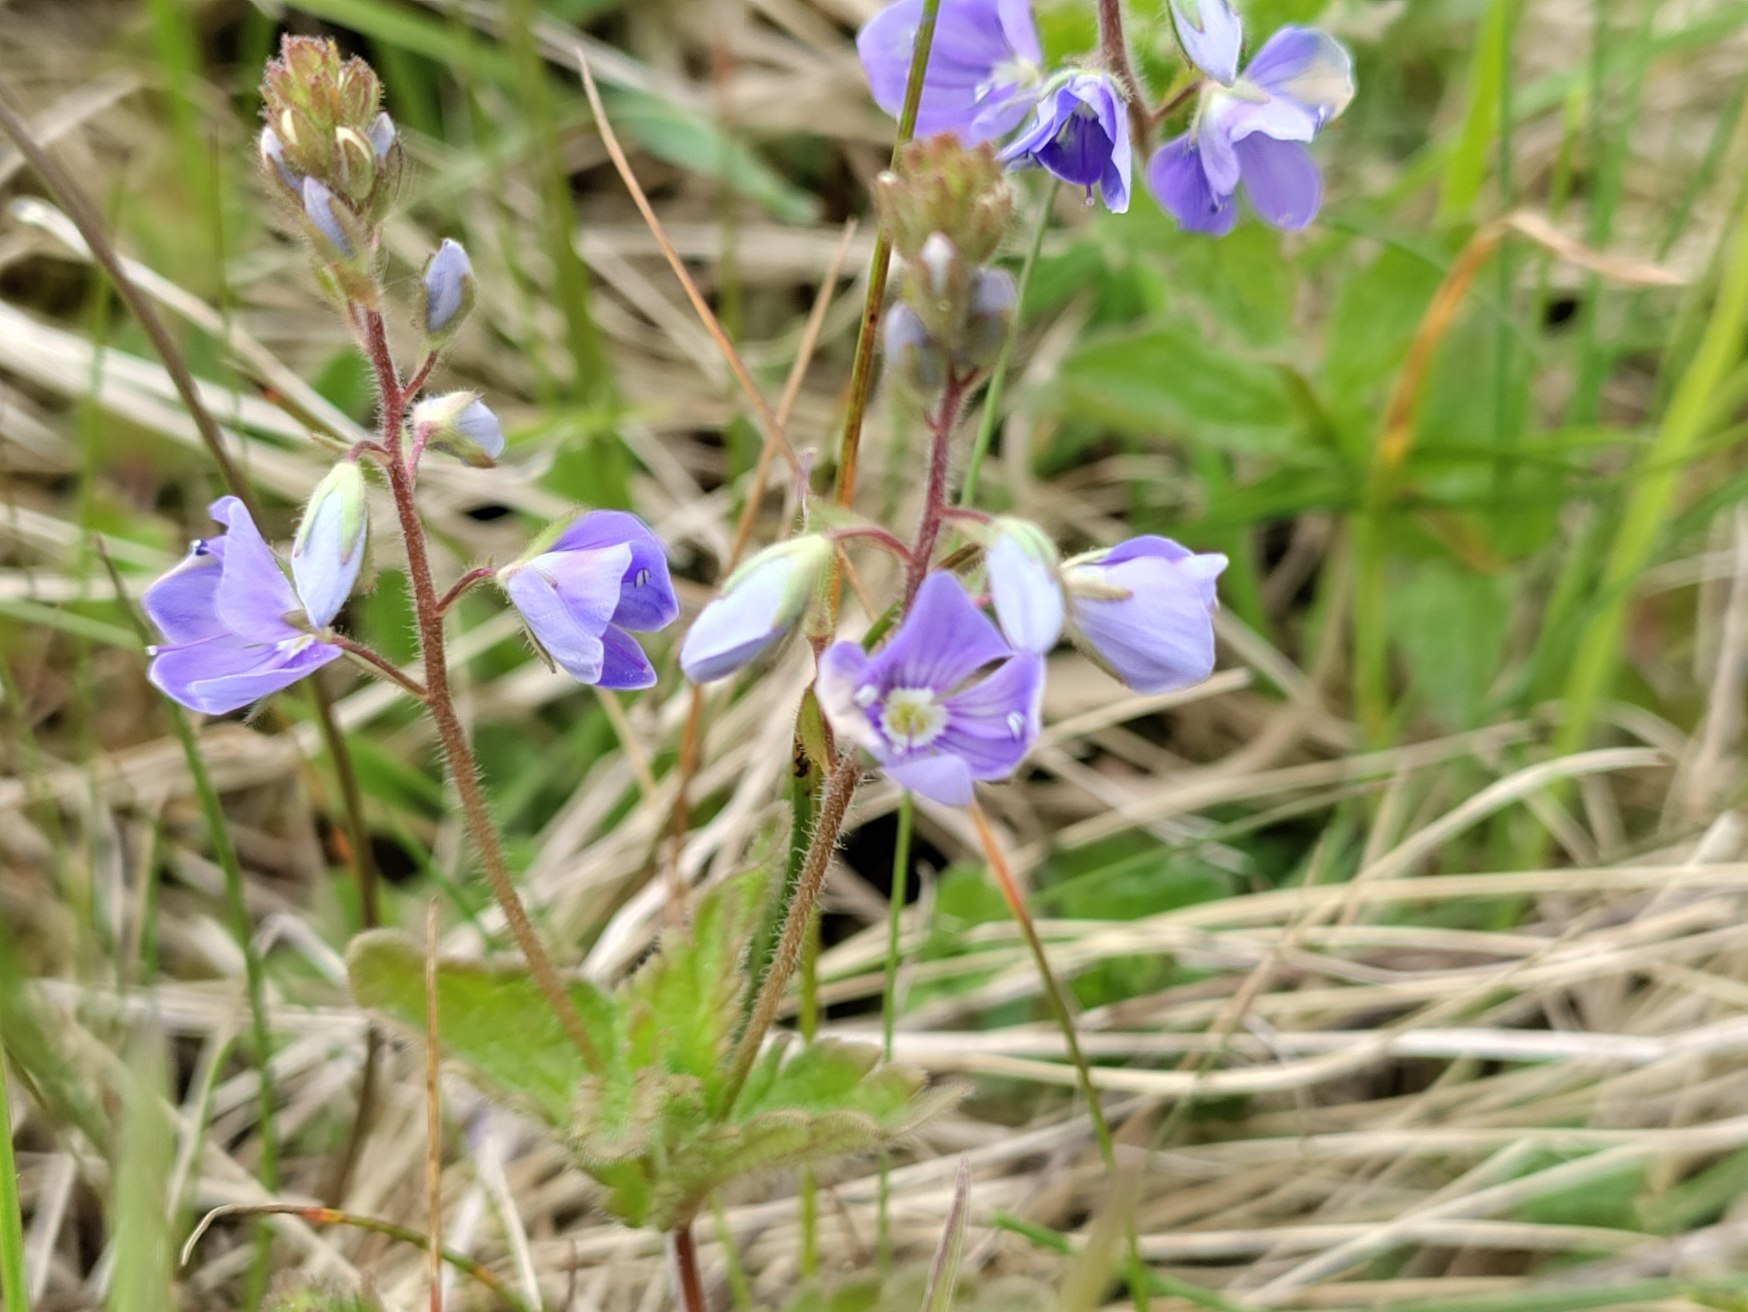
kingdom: Plantae
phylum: Tracheophyta
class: Magnoliopsida
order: Lamiales
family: Plantaginaceae
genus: Veronica
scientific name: Veronica chamaedrys
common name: Tveskægget ærenpris
